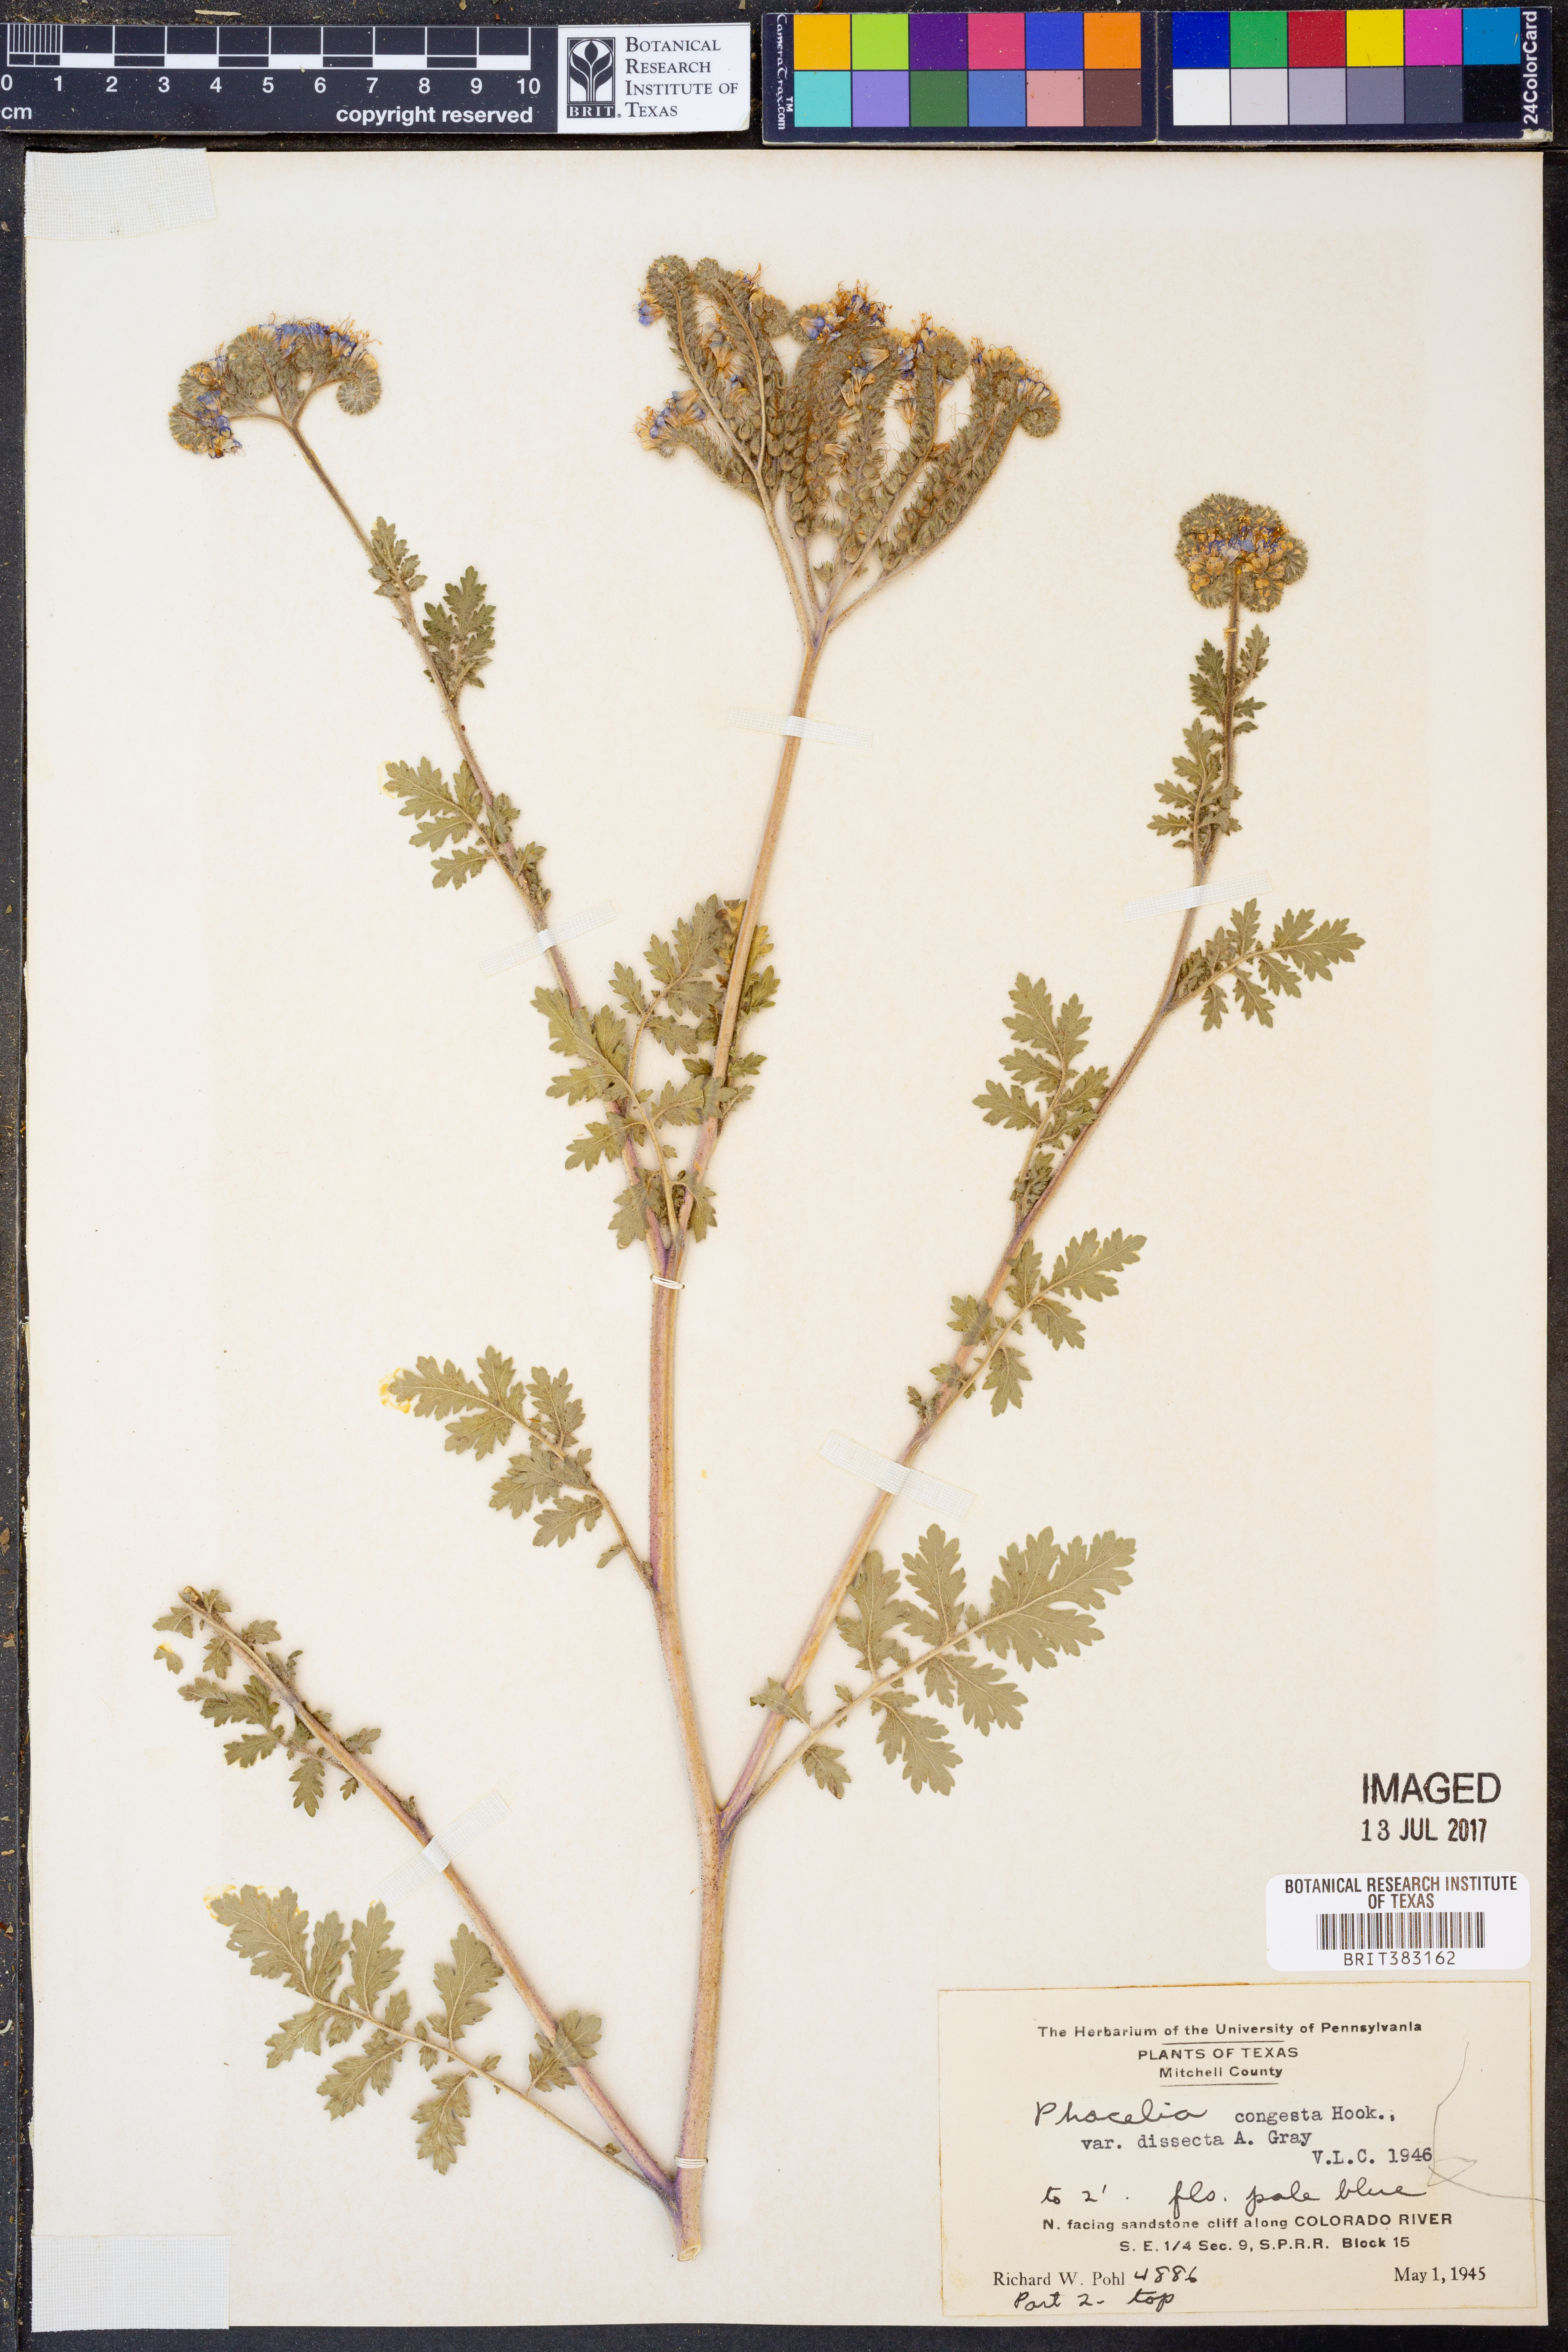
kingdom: Plantae
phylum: Tracheophyta
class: Magnoliopsida
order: Boraginales
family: Hydrophyllaceae
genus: Phacelia
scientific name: Phacelia congesta
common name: Blue curls
